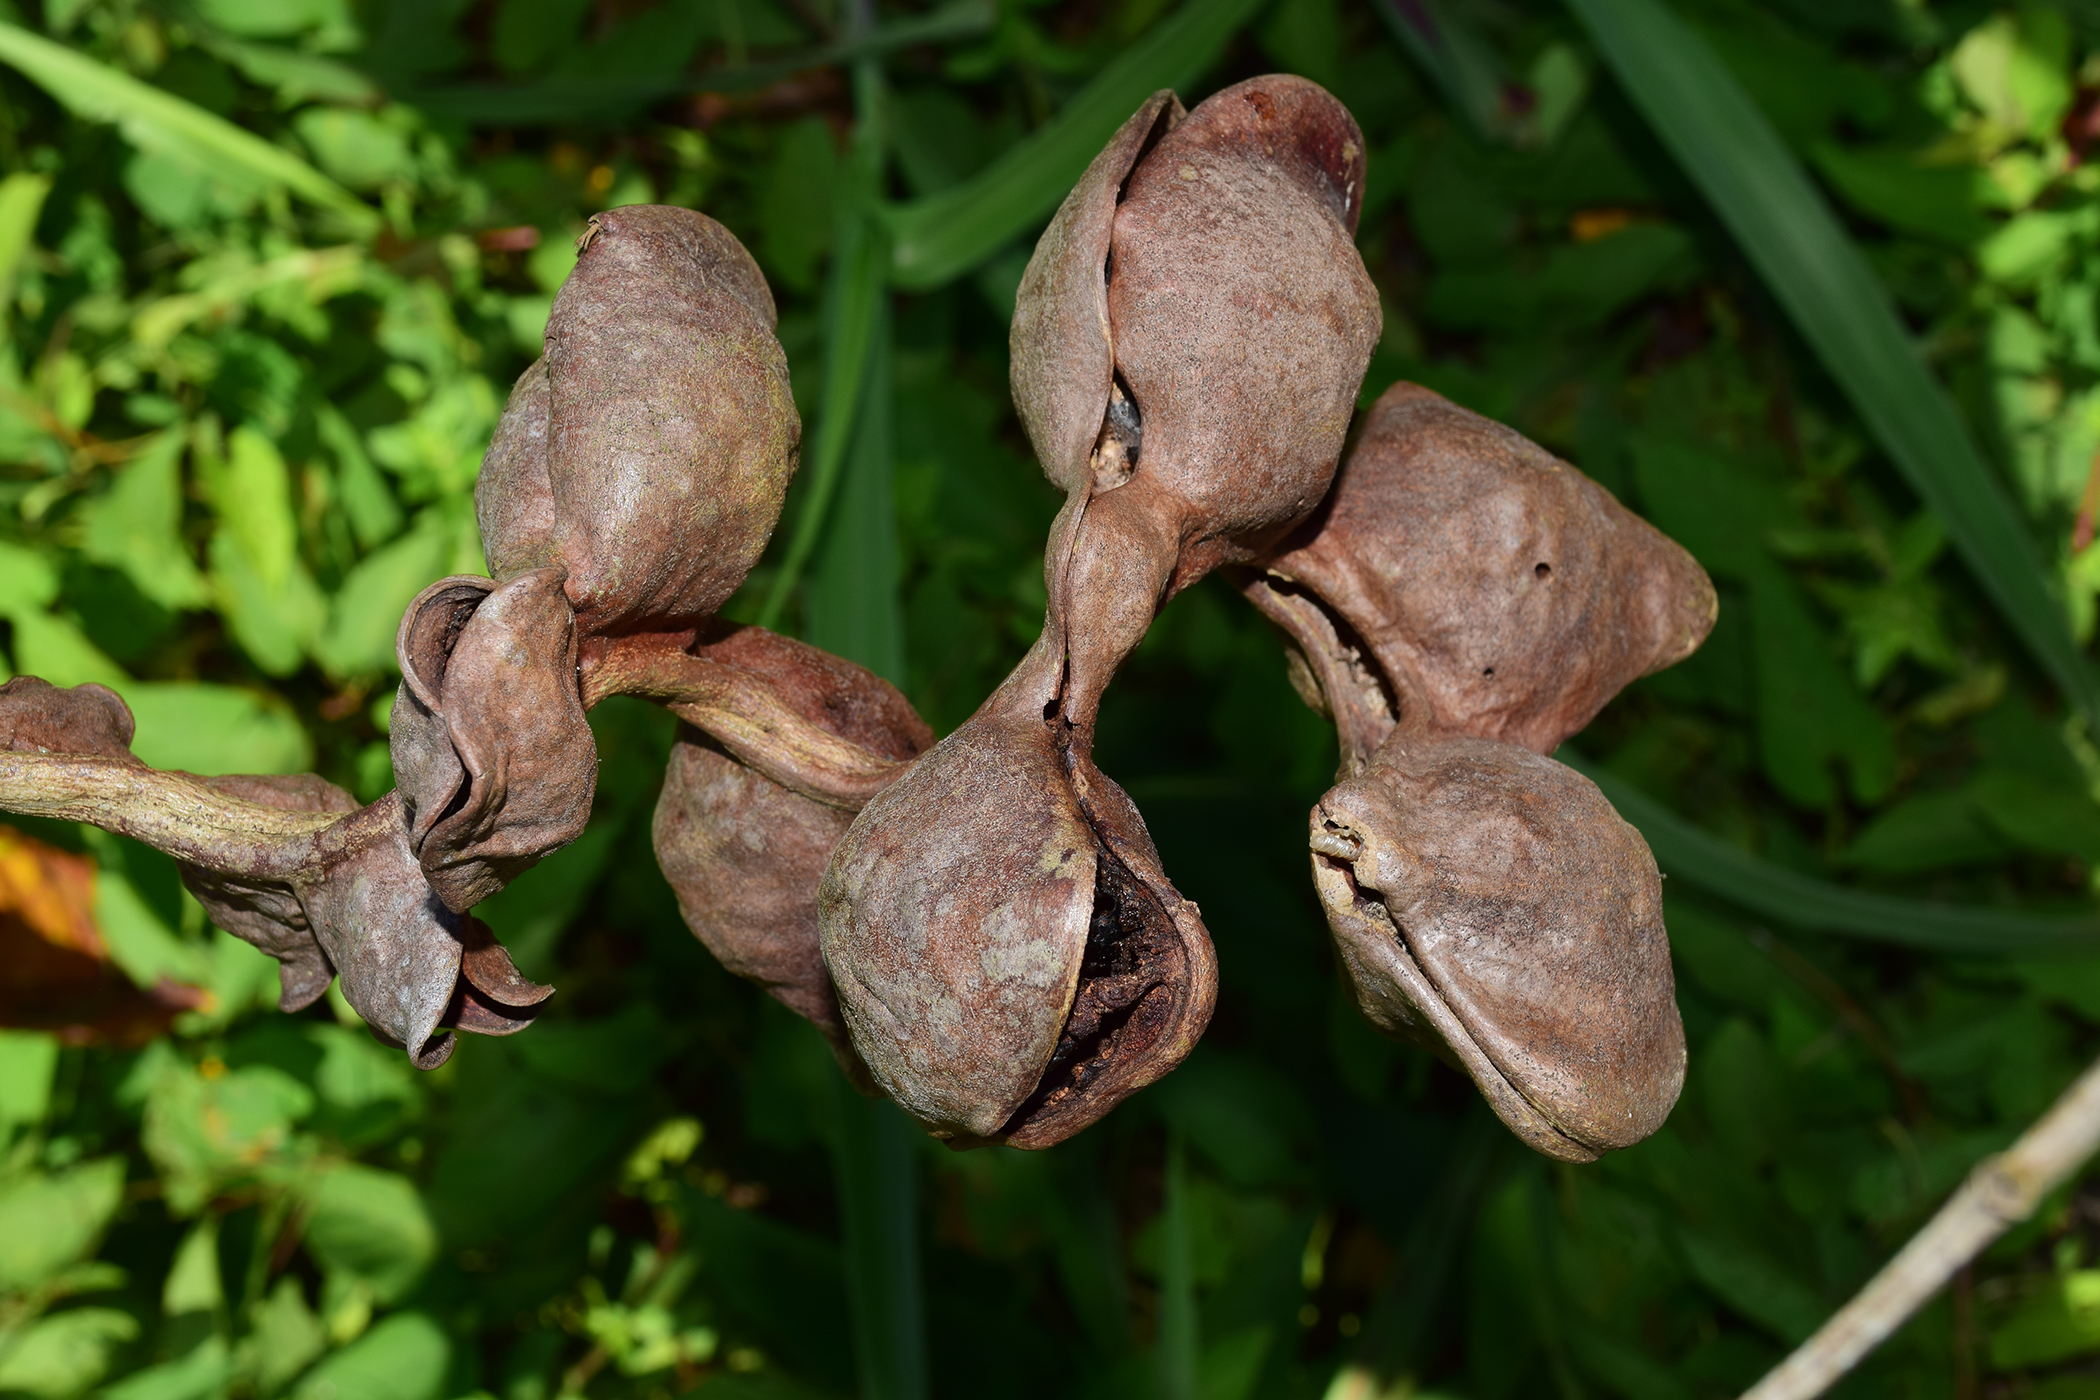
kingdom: Plantae
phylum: Tracheophyta
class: Magnoliopsida
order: Fabales
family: Fabaceae
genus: Archidendron
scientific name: Archidendron jiringa
